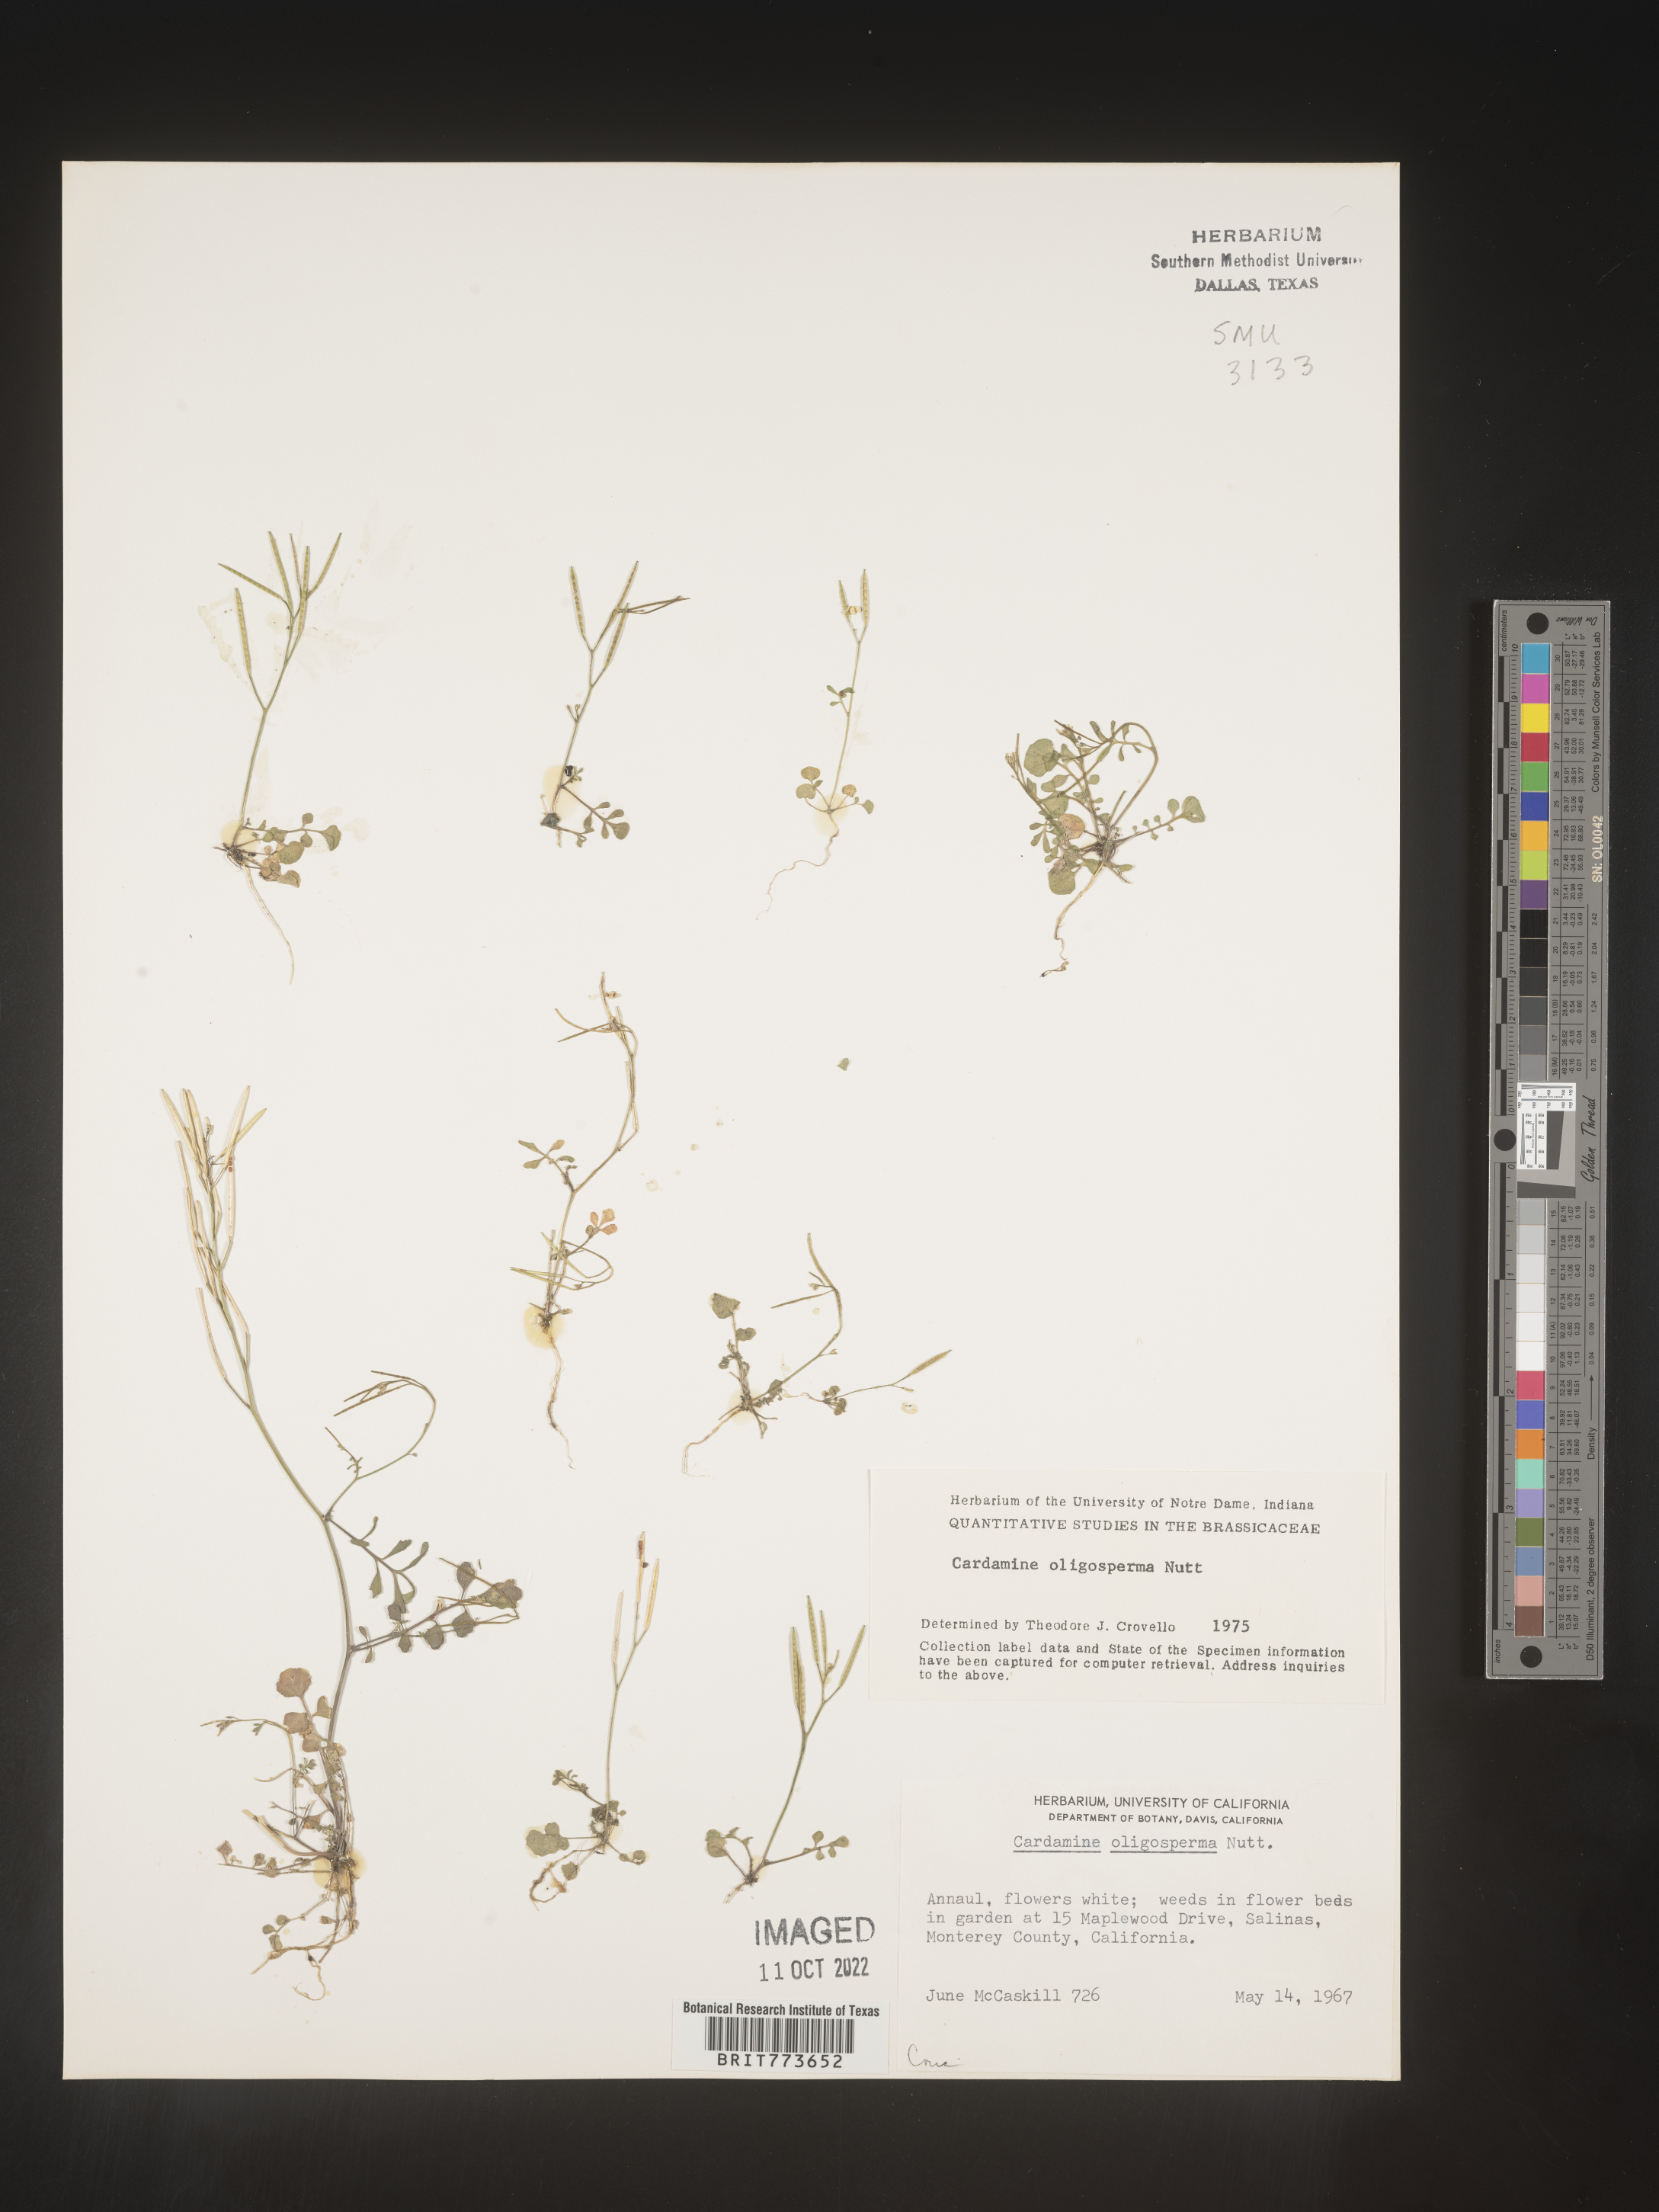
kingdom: Plantae
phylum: Tracheophyta
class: Magnoliopsida
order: Brassicales
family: Brassicaceae
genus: Cardamine
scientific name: Cardamine
